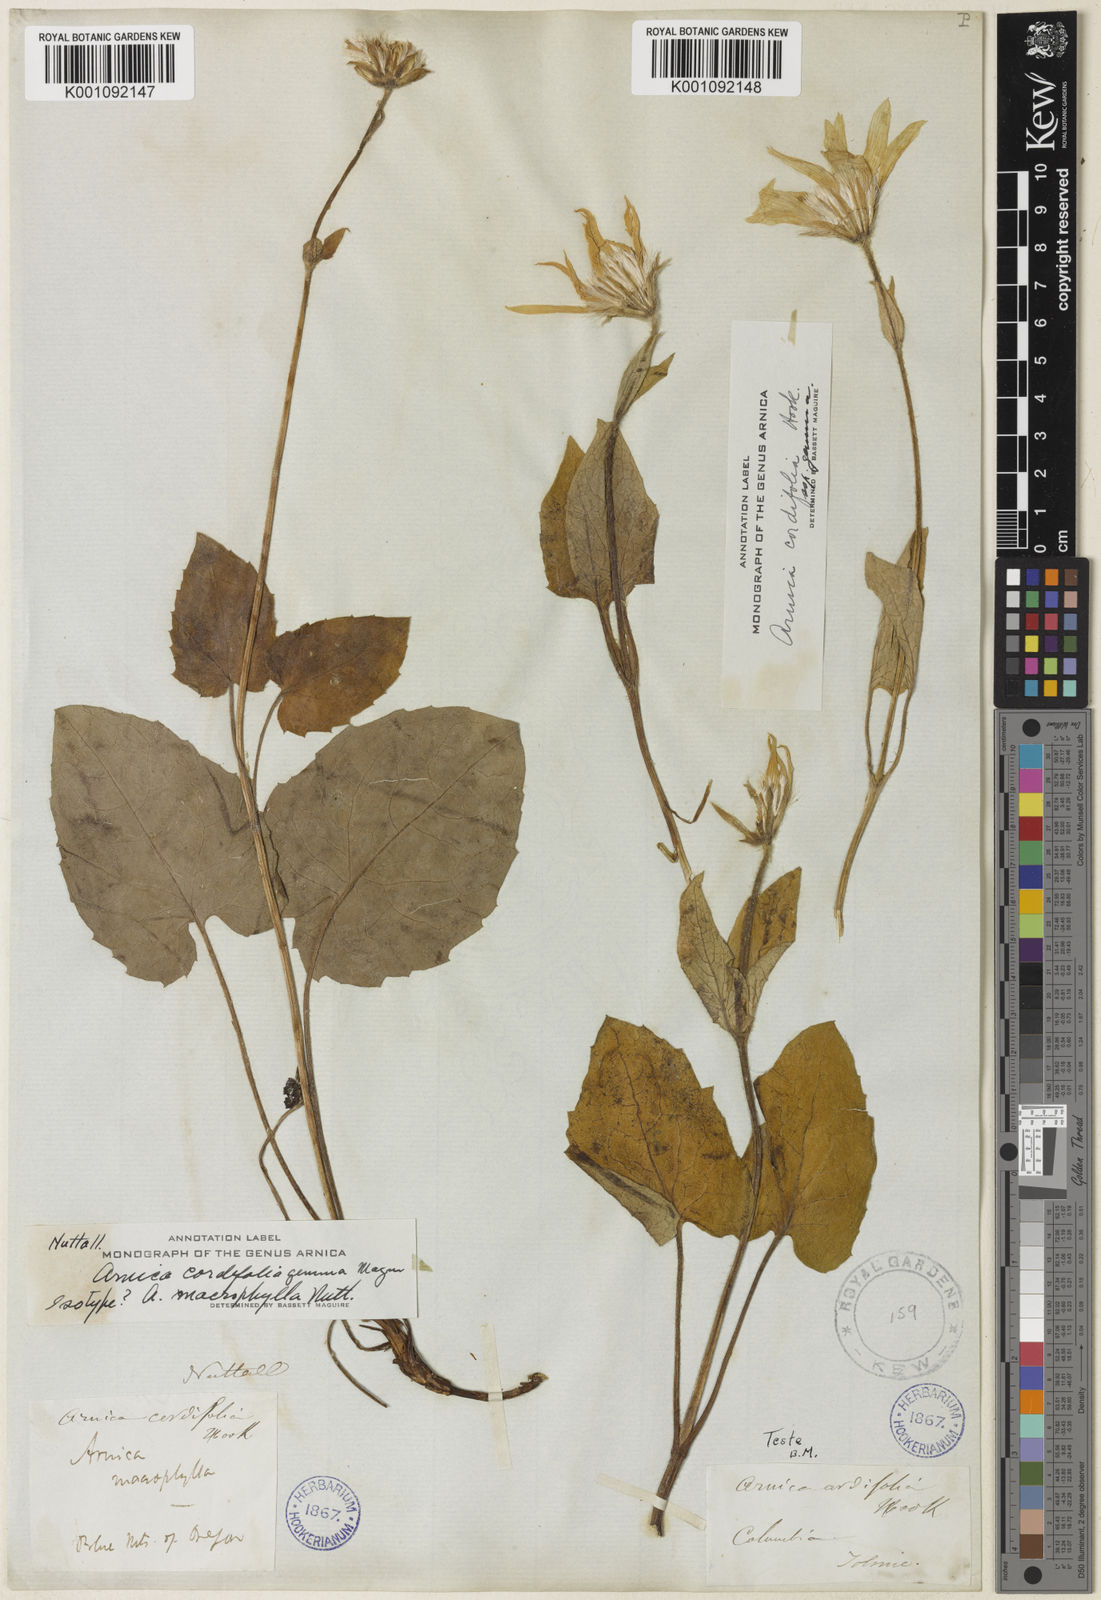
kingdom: Plantae
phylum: Tracheophyta
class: Magnoliopsida
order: Asterales
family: Asteraceae
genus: Arnica
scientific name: Arnica cordifolia
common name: Heart-leaf arnica
